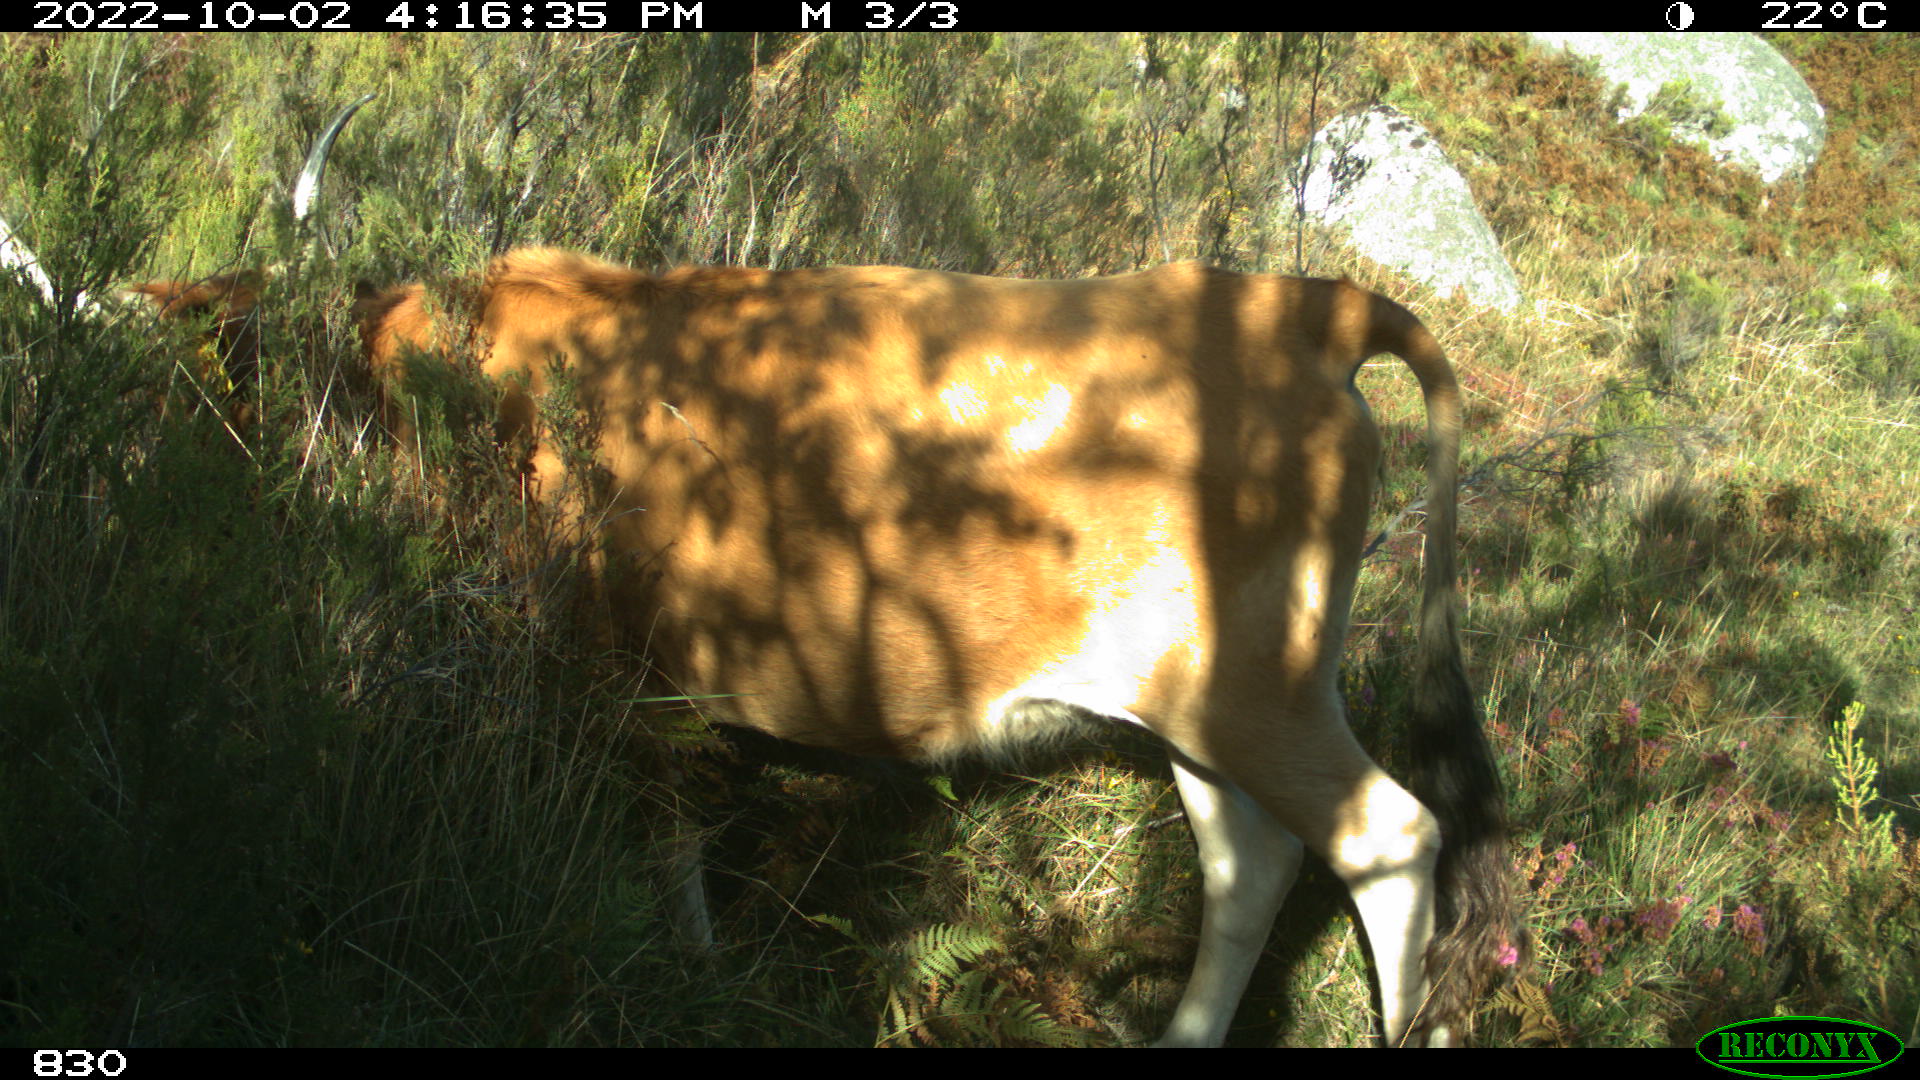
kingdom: Animalia
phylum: Chordata
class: Mammalia
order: Artiodactyla
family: Bovidae
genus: Bos
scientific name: Bos taurus
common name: Domesticated cattle
